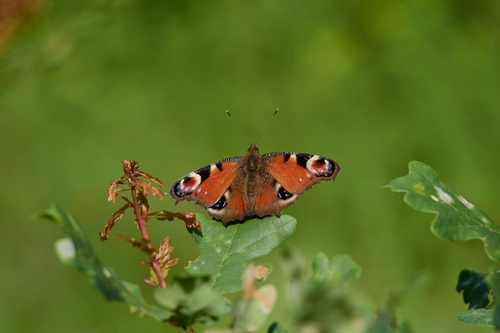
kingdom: Animalia
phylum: Arthropoda
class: Insecta
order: Lepidoptera
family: Nymphalidae
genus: Aglais
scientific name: Aglais io
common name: Peacock
